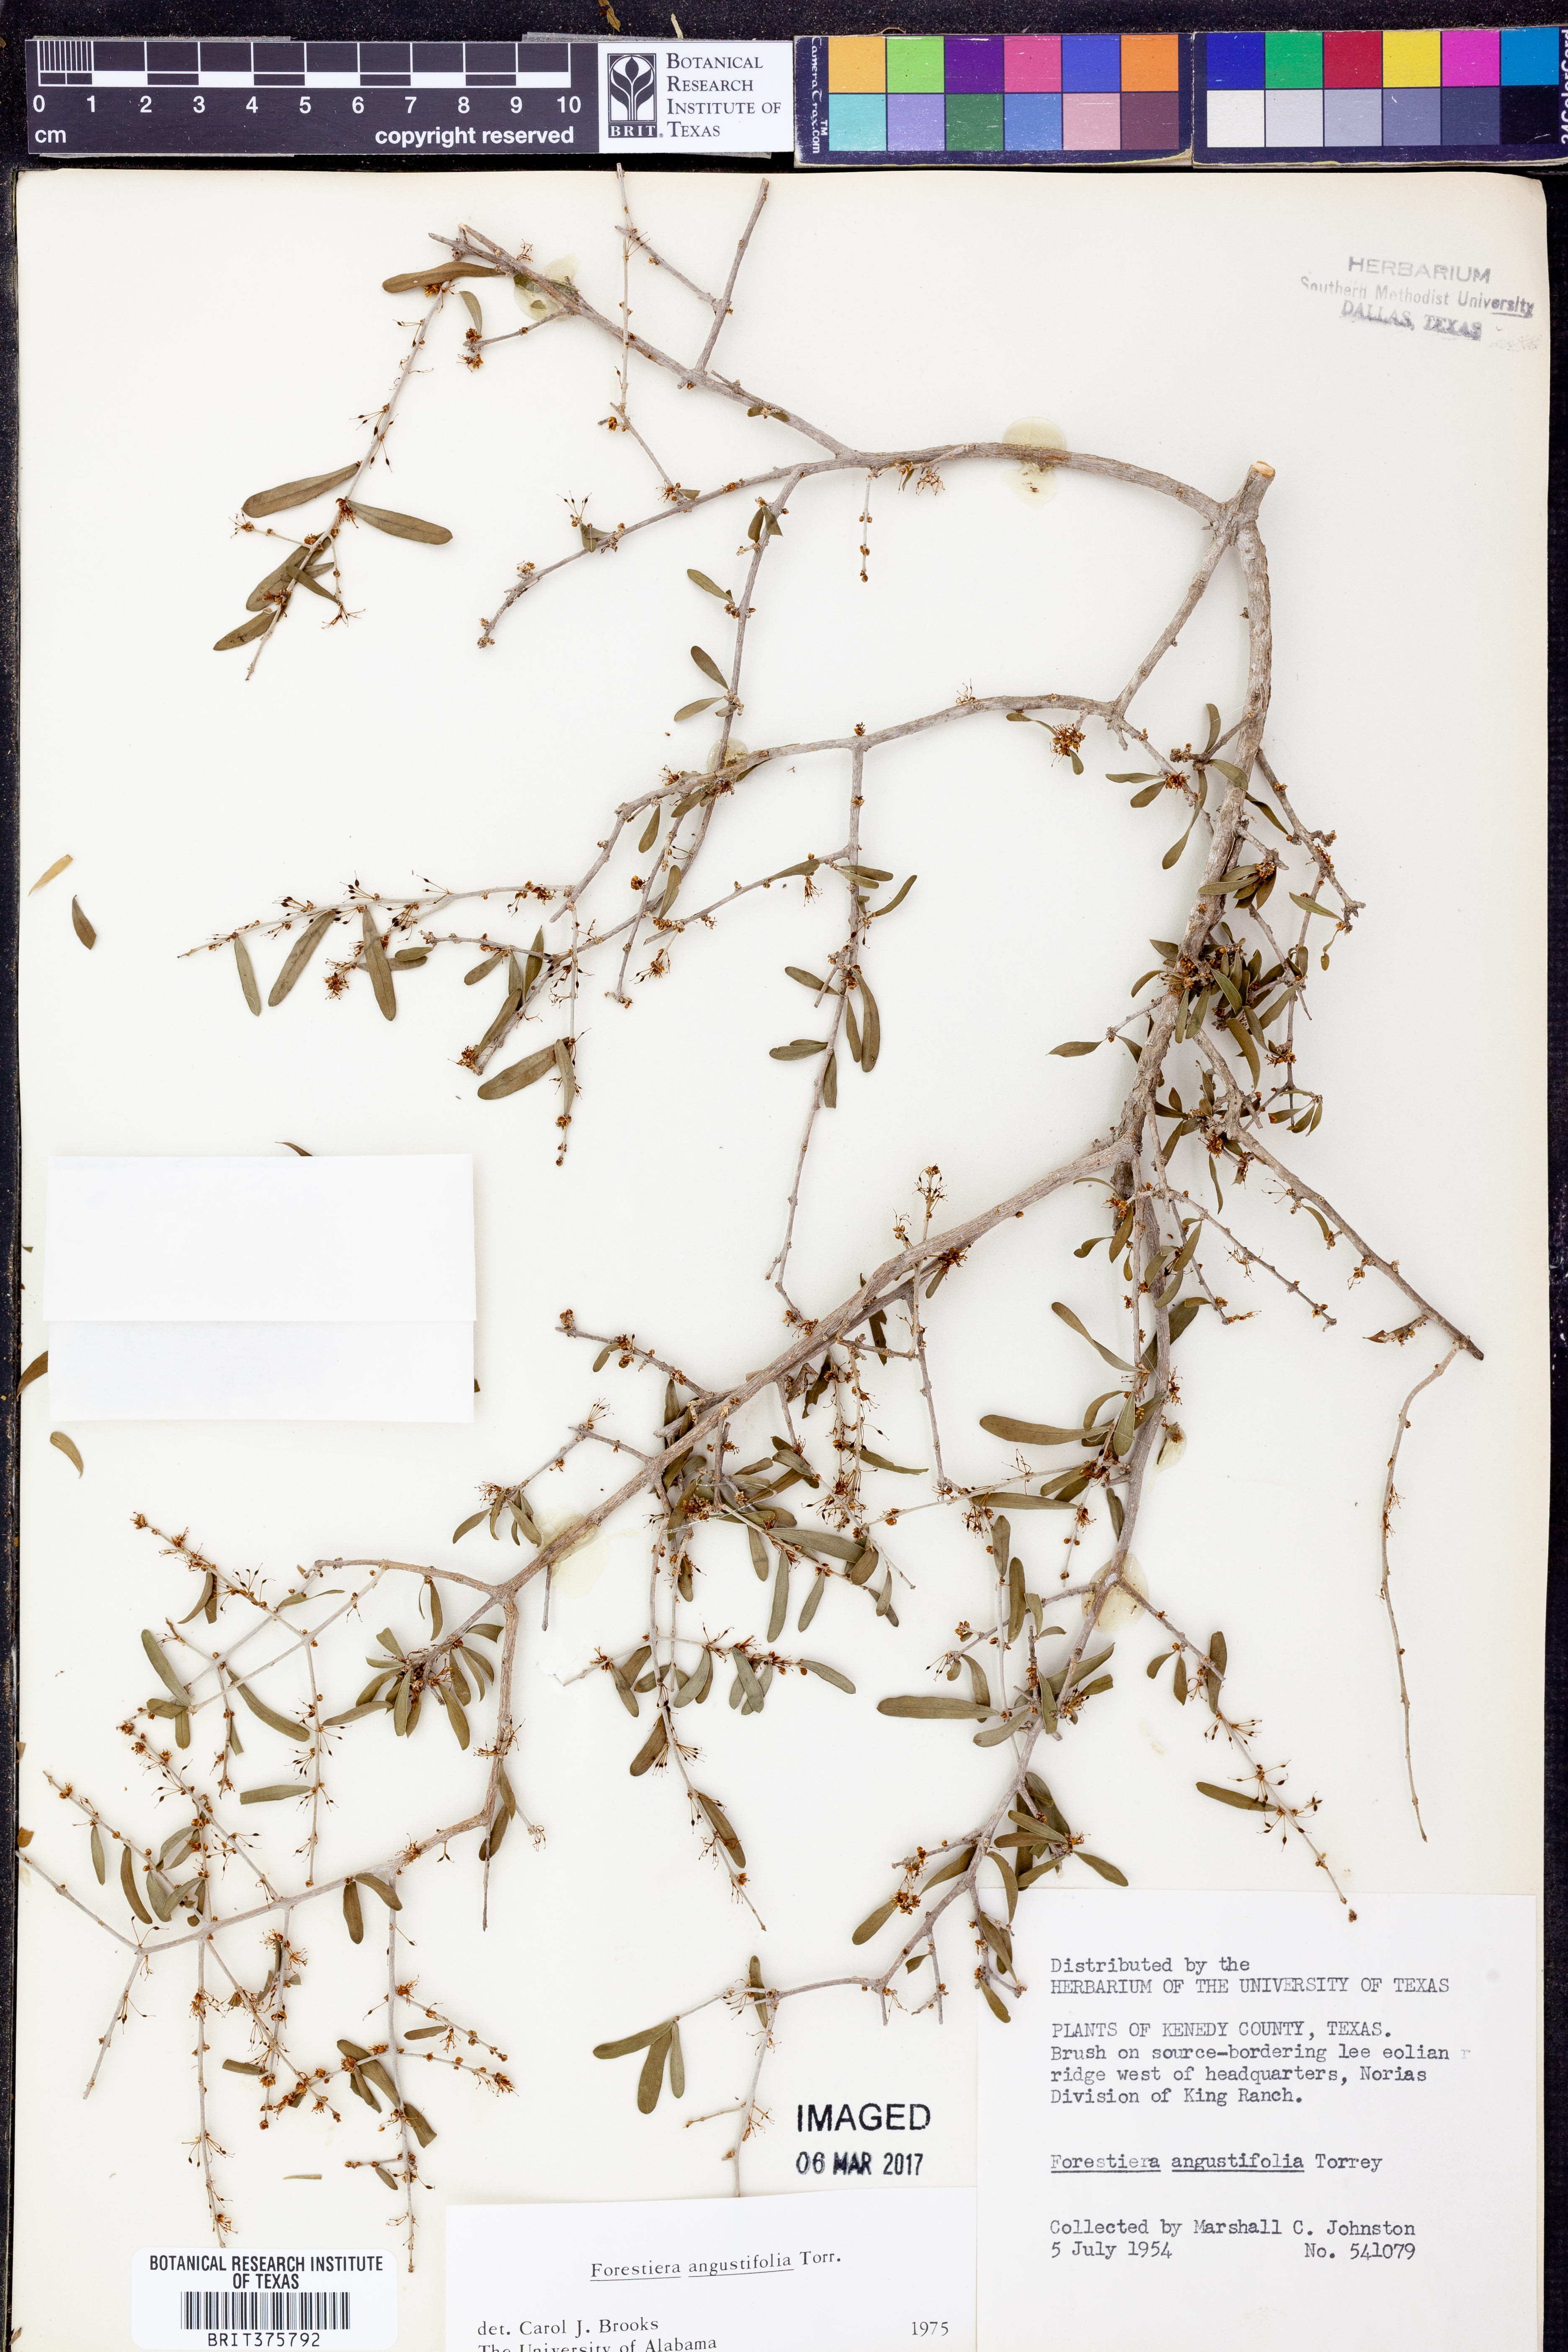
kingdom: Plantae
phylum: Tracheophyta
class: Magnoliopsida
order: Lamiales
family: Oleaceae
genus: Forestiera
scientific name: Forestiera angustifolia
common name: Elbowbush
